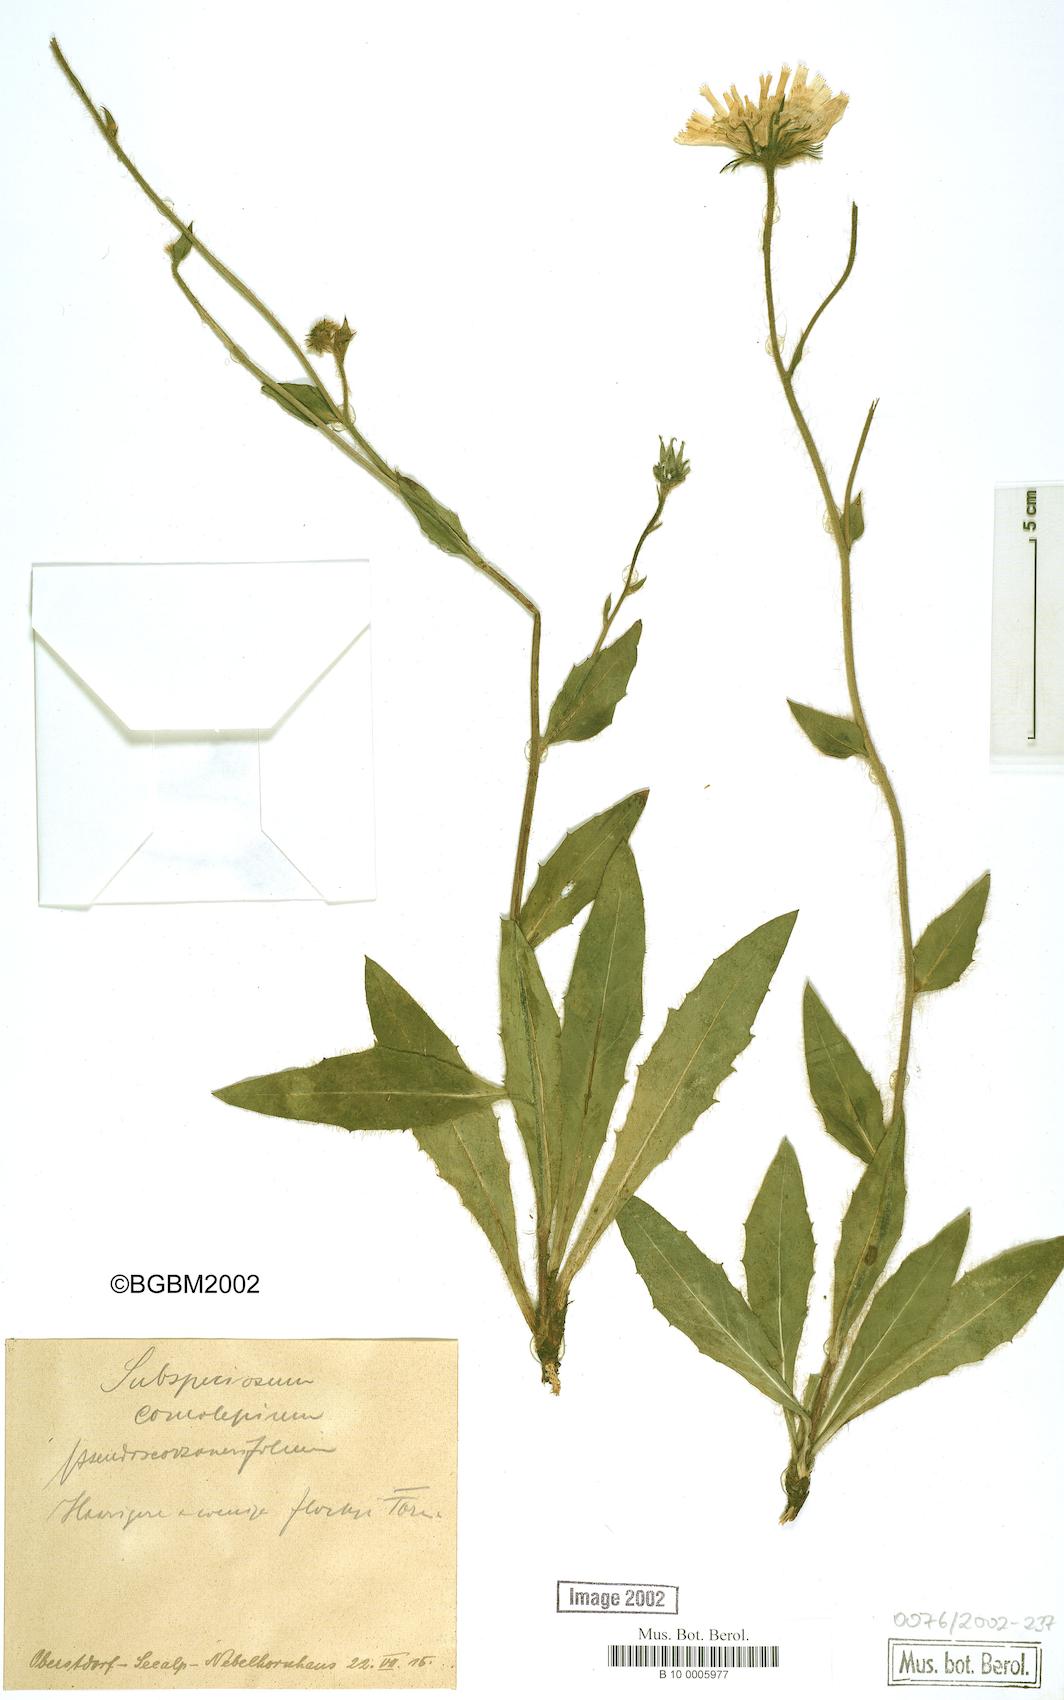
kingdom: Plantae
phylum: Tracheophyta
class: Magnoliopsida
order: Asterales
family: Asteraceae
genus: Hieracium
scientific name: Hieracium subspeciosum
